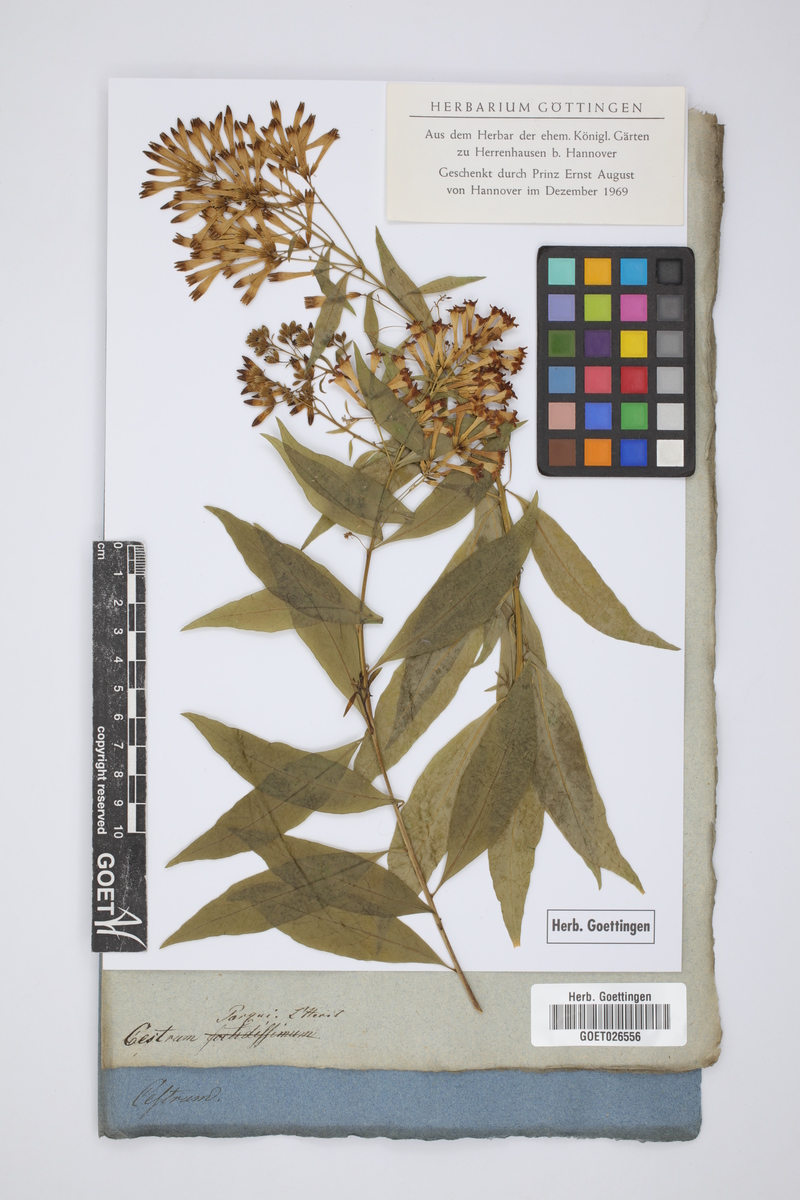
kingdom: Plantae
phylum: Tracheophyta
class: Magnoliopsida
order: Solanales
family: Solanaceae
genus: Cestrum
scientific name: Cestrum parqui
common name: Chilean cestrum
